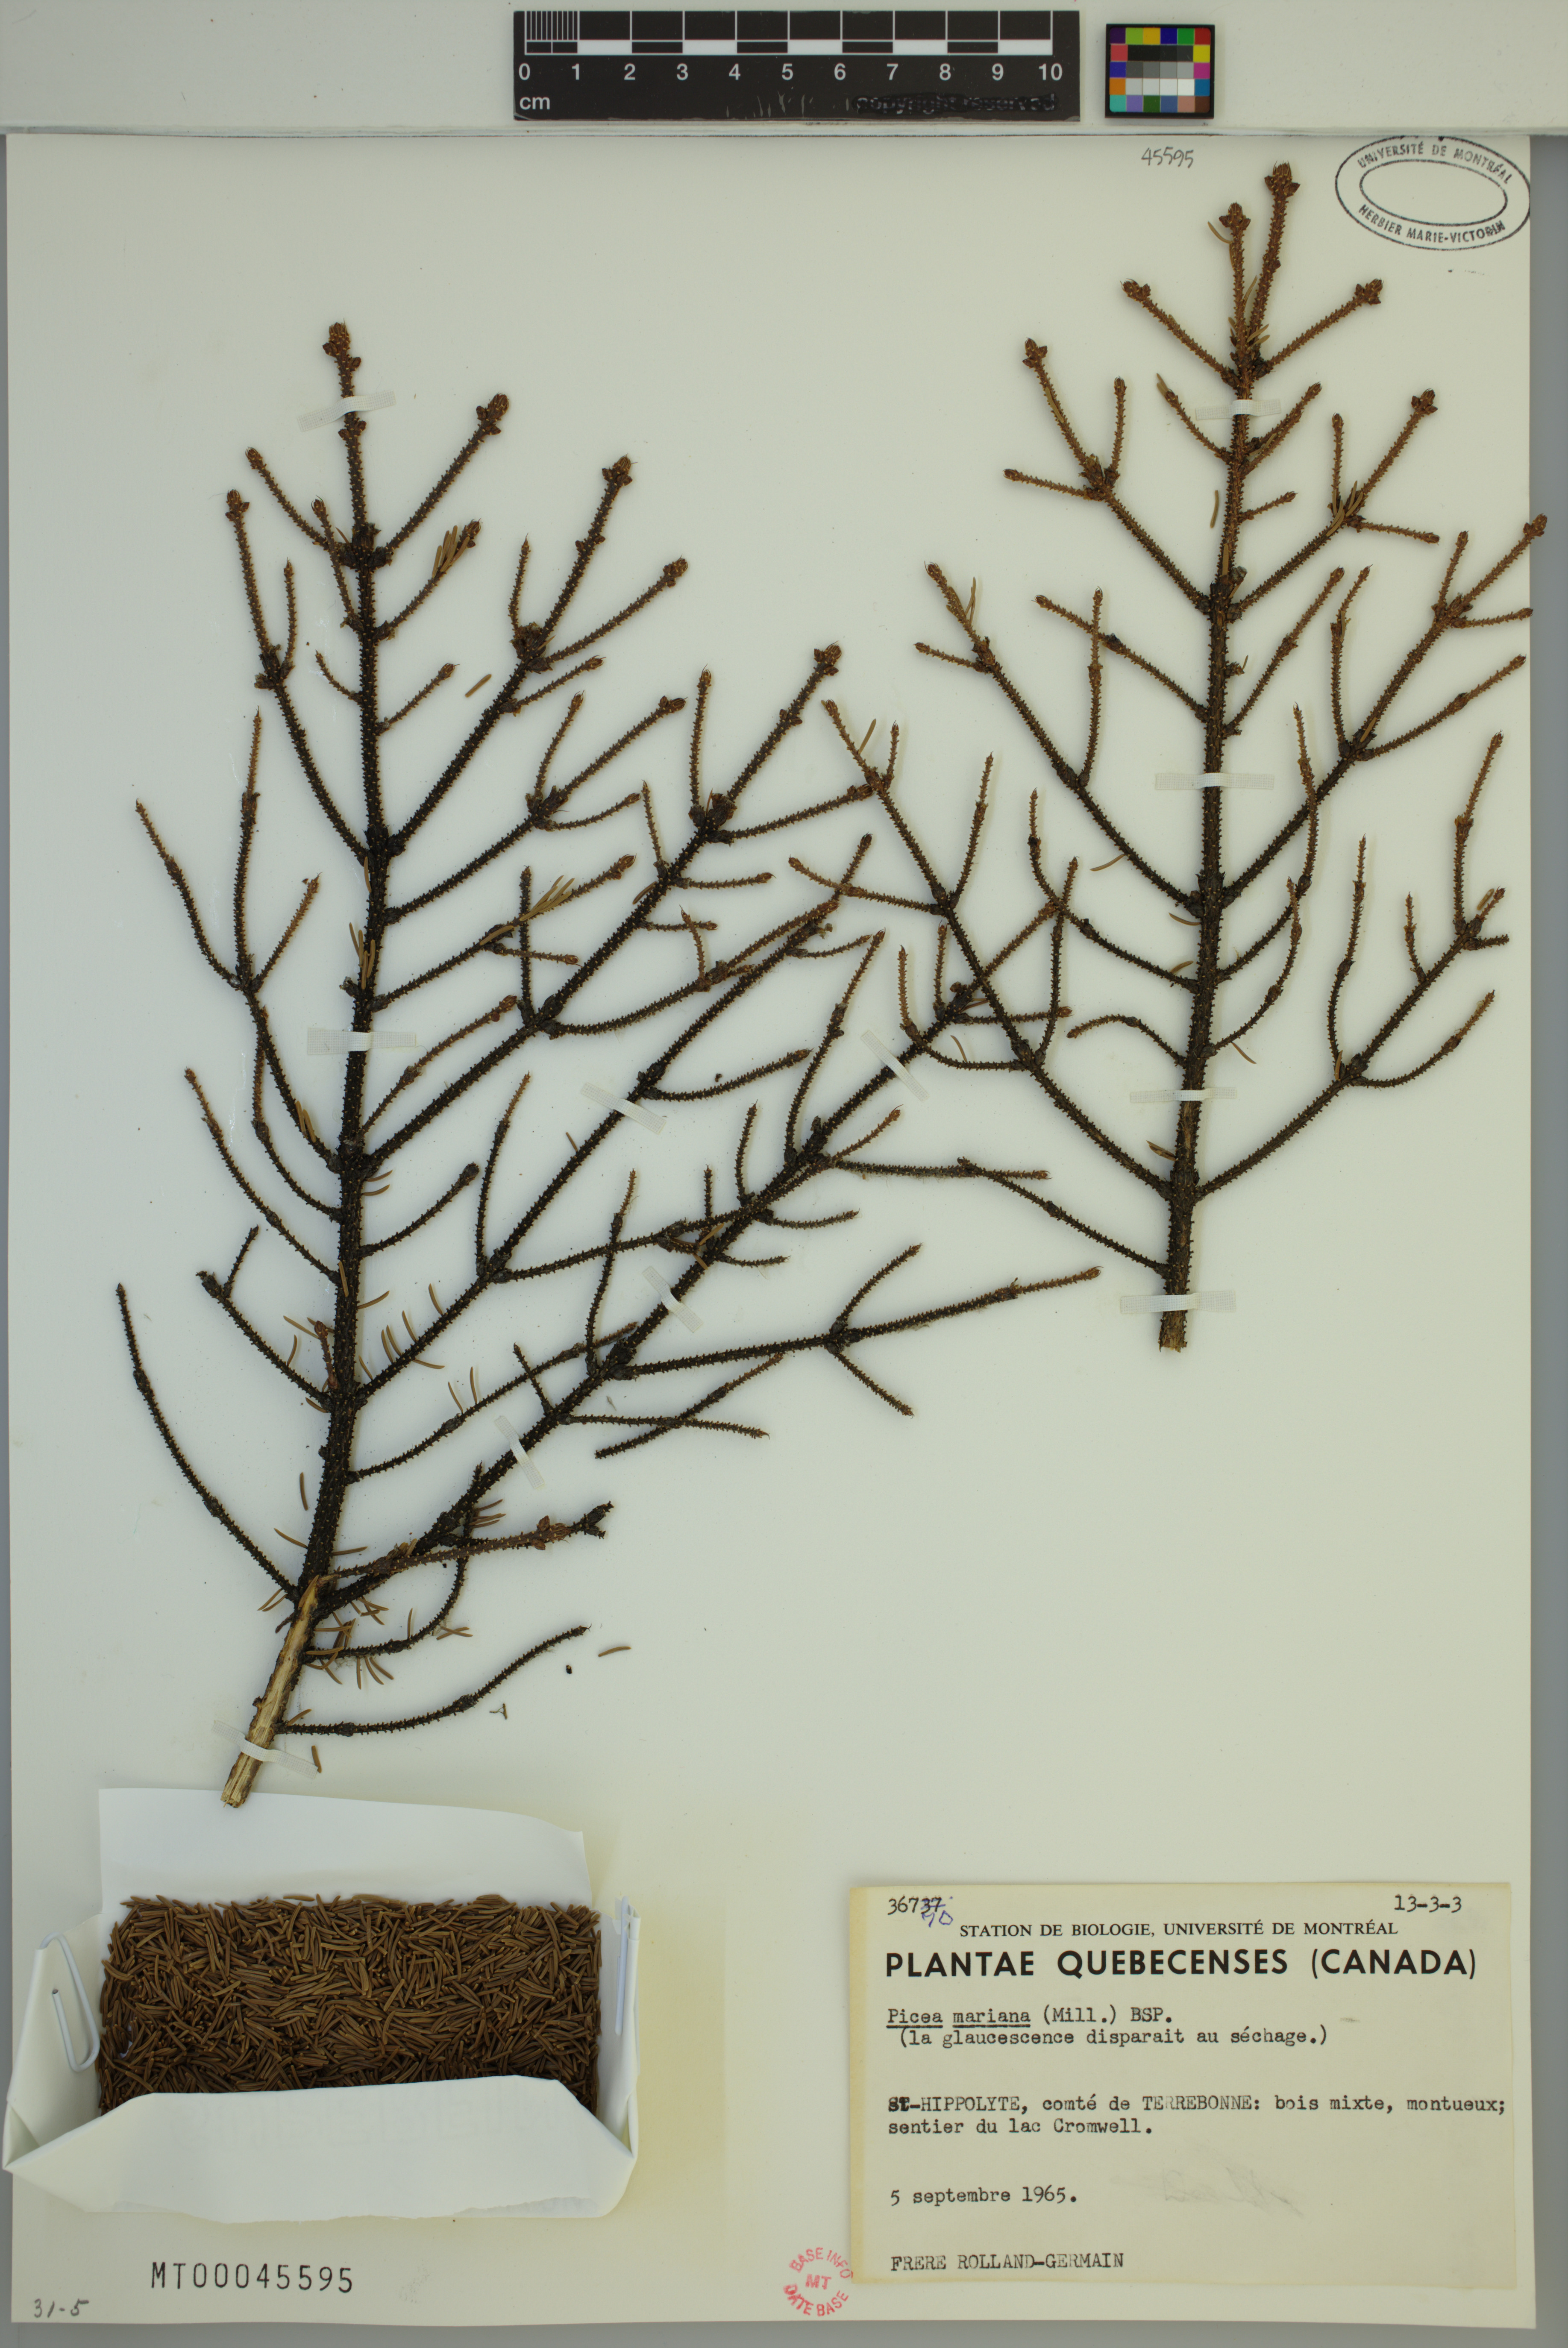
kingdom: Plantae
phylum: Tracheophyta
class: Pinopsida
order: Pinales
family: Pinaceae
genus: Picea
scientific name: Picea mariana
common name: Black spruce
